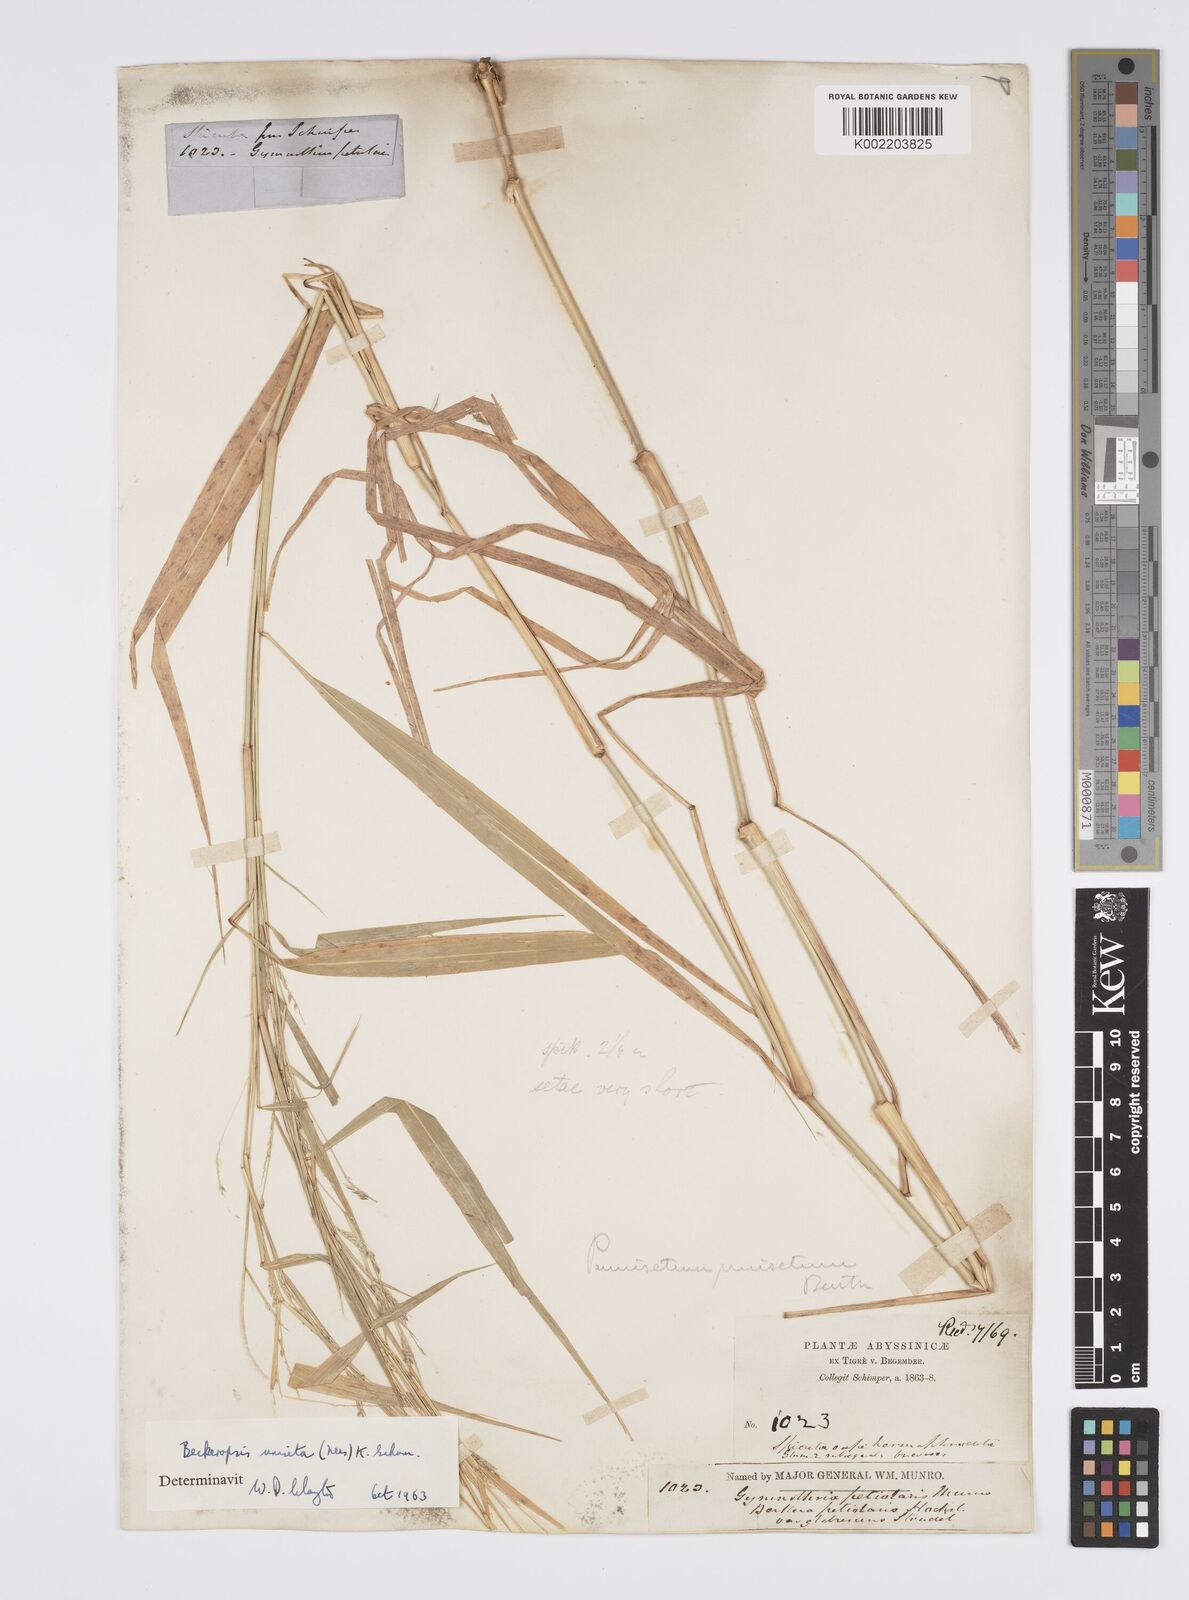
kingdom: Plantae
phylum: Tracheophyta
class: Liliopsida
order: Poales
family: Poaceae
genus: Cenchrus
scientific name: Cenchrus unisetus
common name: Natal grass
